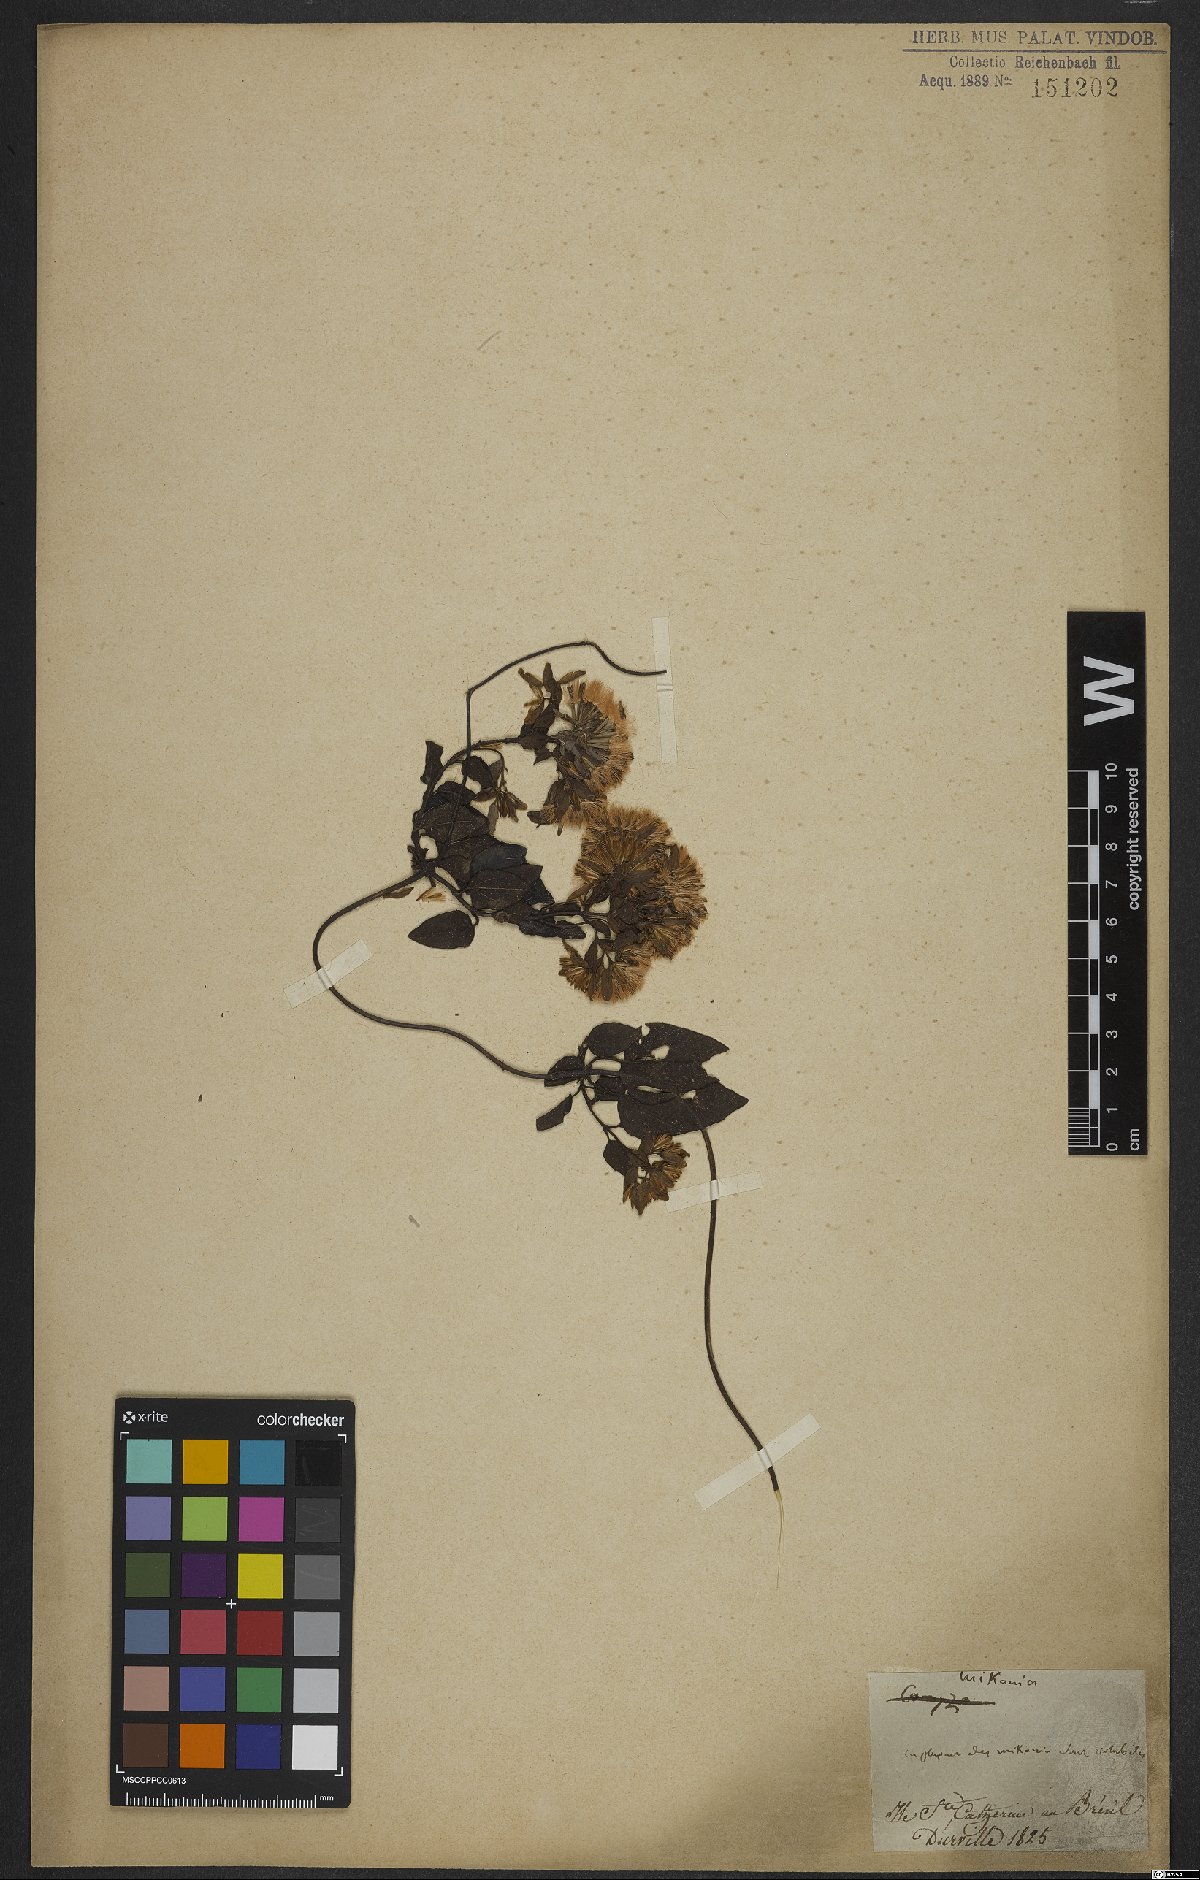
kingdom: Plantae
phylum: Tracheophyta
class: Magnoliopsida
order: Asterales
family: Asteraceae
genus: Mikania
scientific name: Mikania
